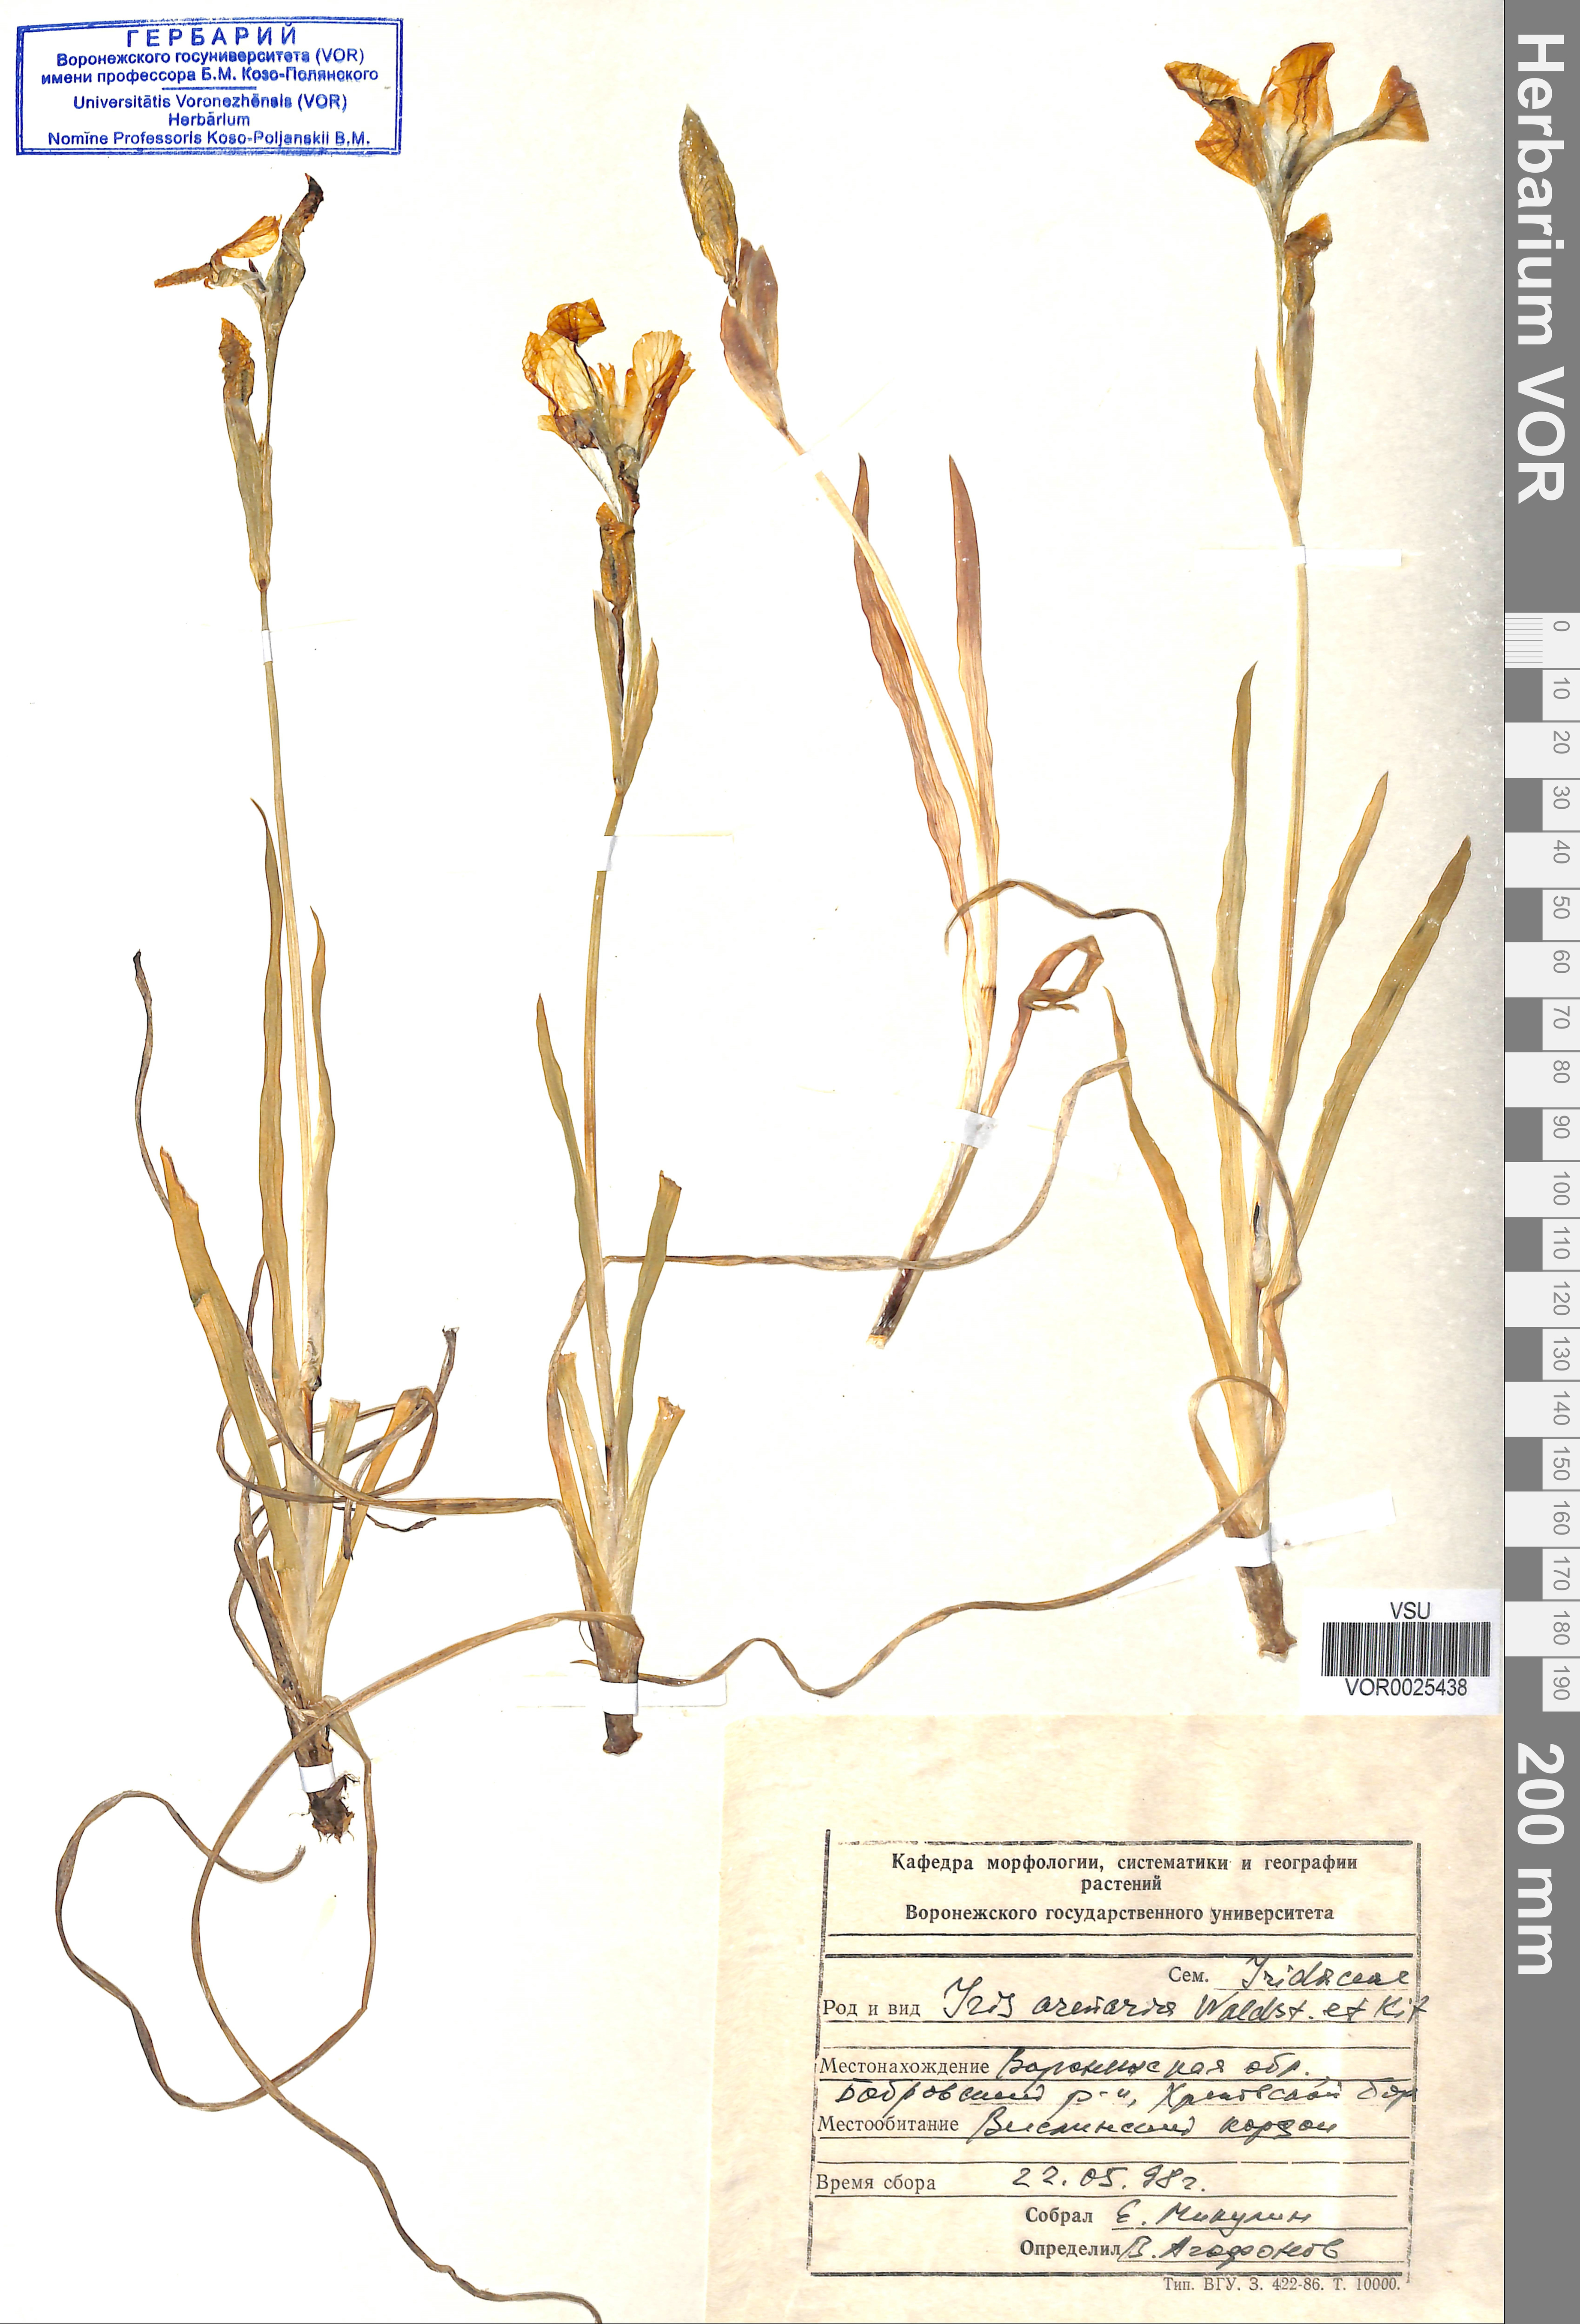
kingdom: Plantae
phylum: Tracheophyta
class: Liliopsida
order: Asparagales
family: Iridaceae
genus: Iris
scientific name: Iris arenaria
